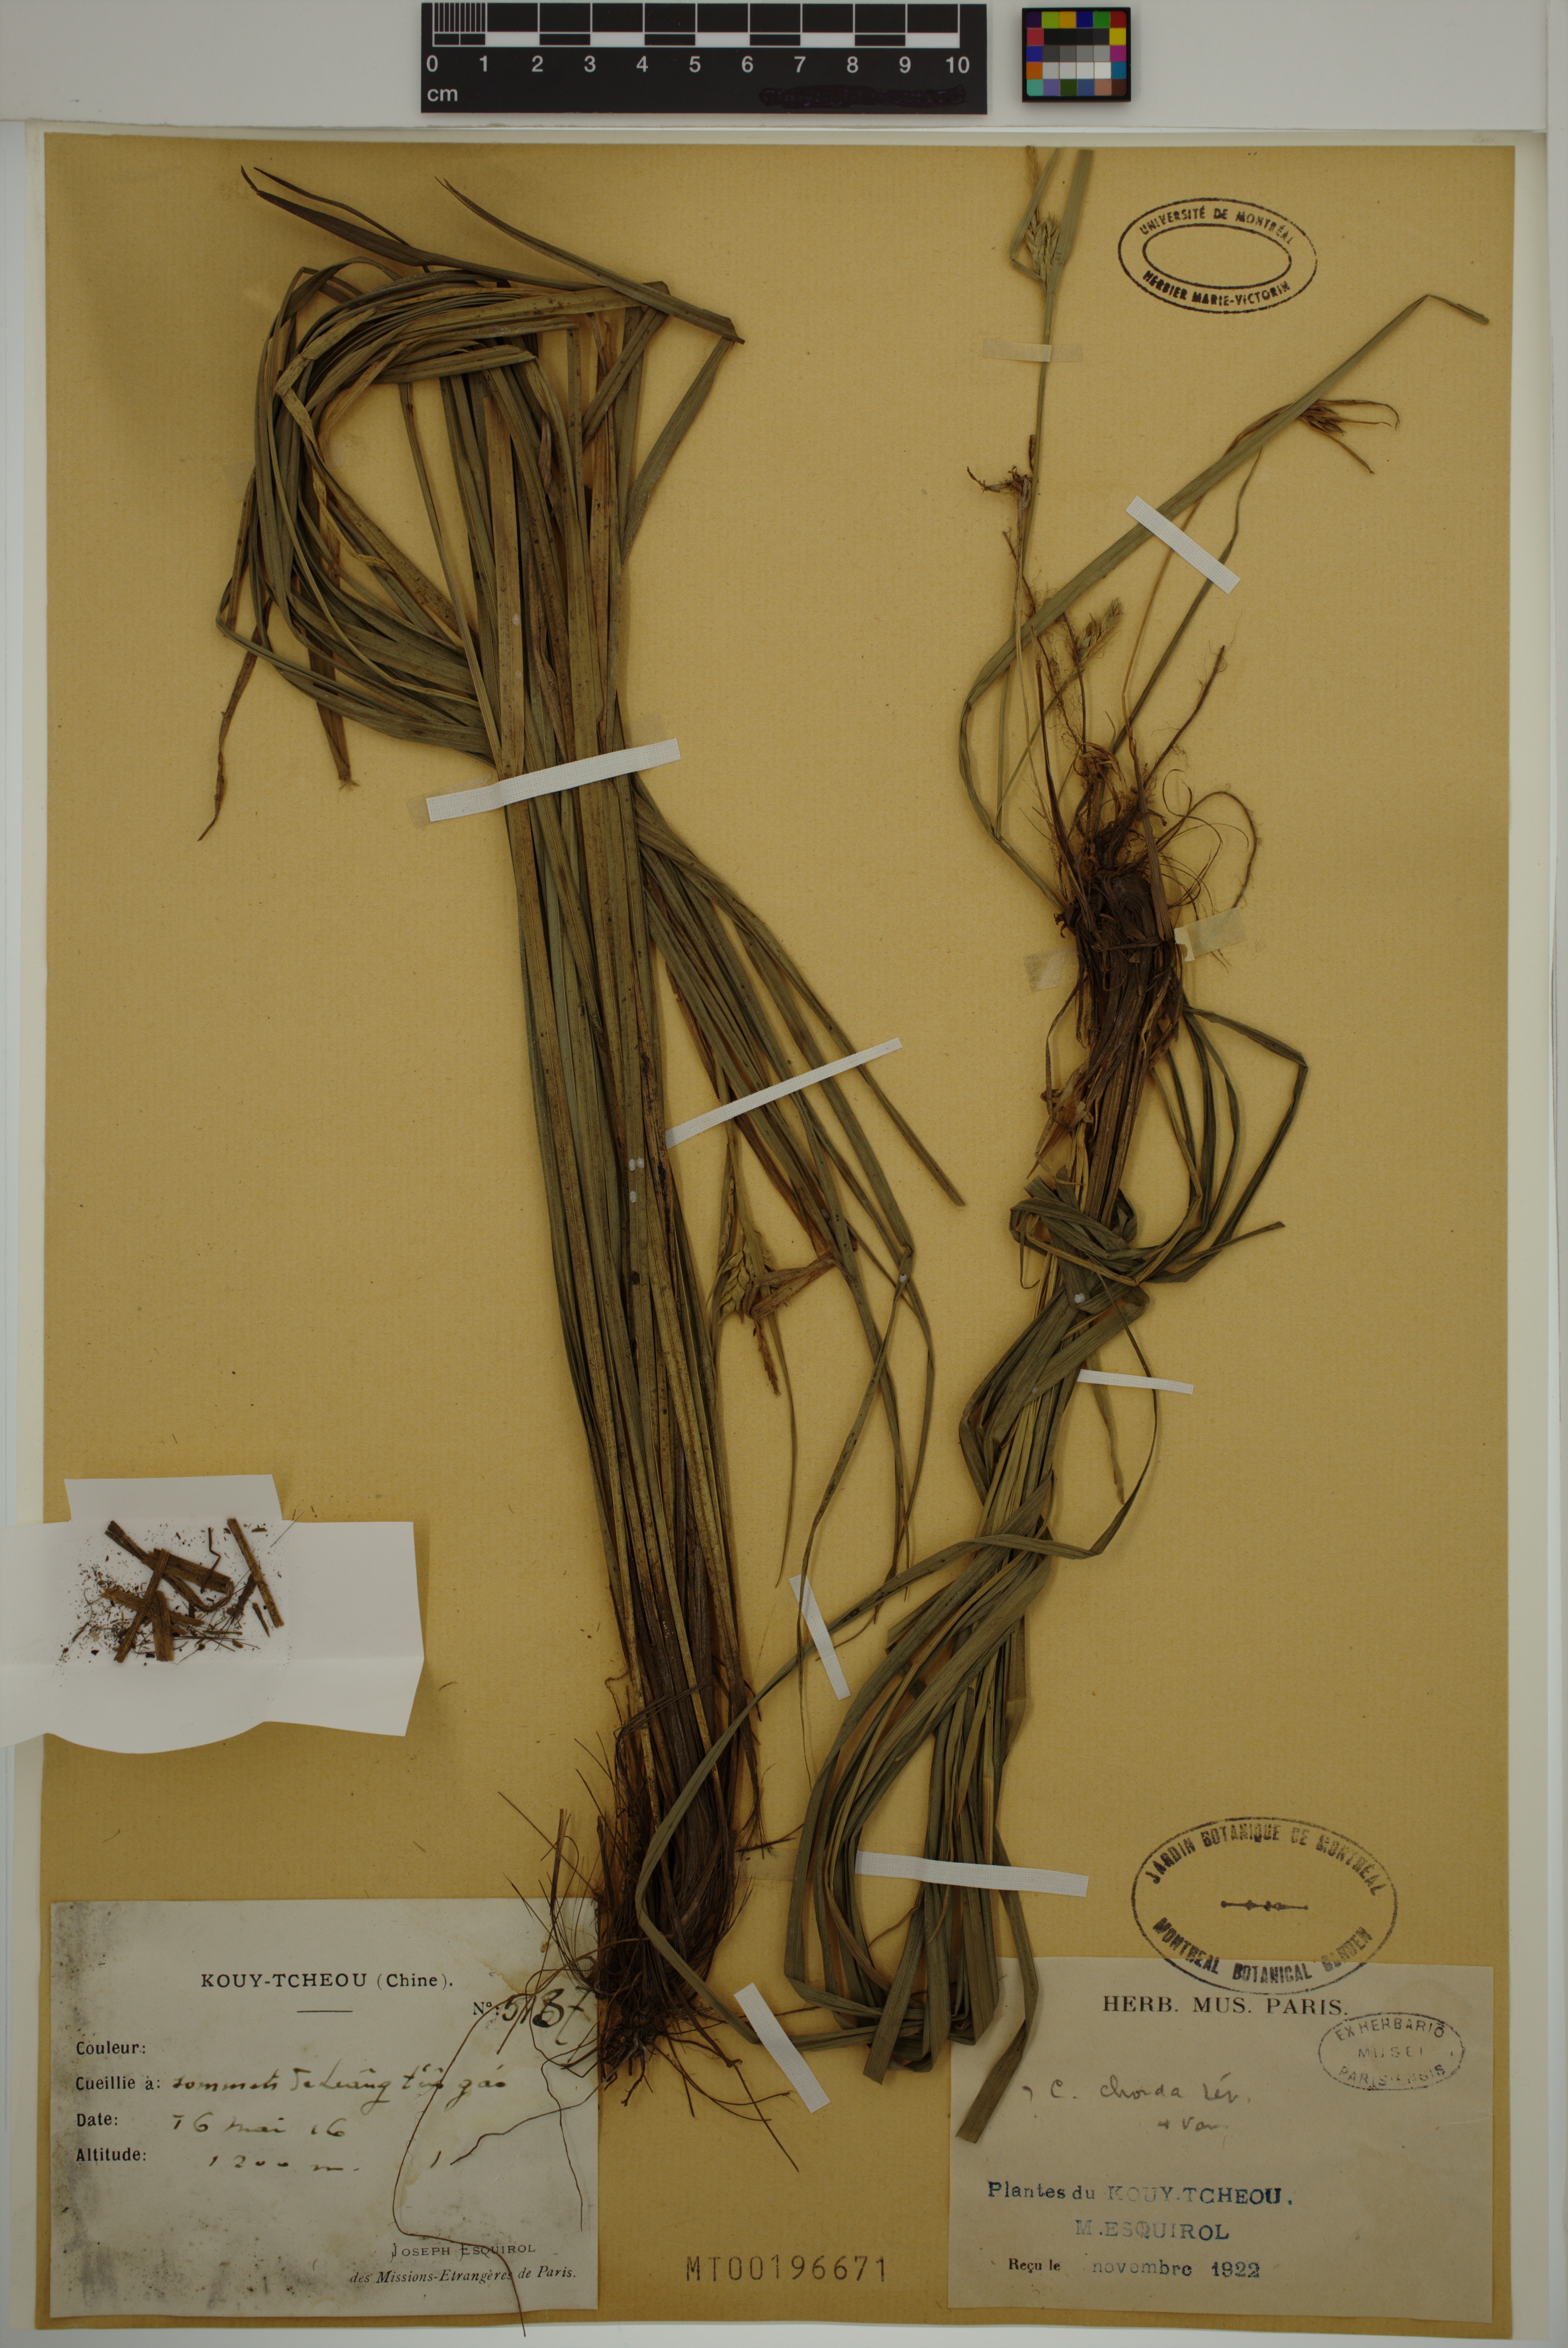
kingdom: Plantae
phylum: Tracheophyta
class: Liliopsida
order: Poales
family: Cyperaceae
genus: Carex
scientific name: Carex rhynchophora
